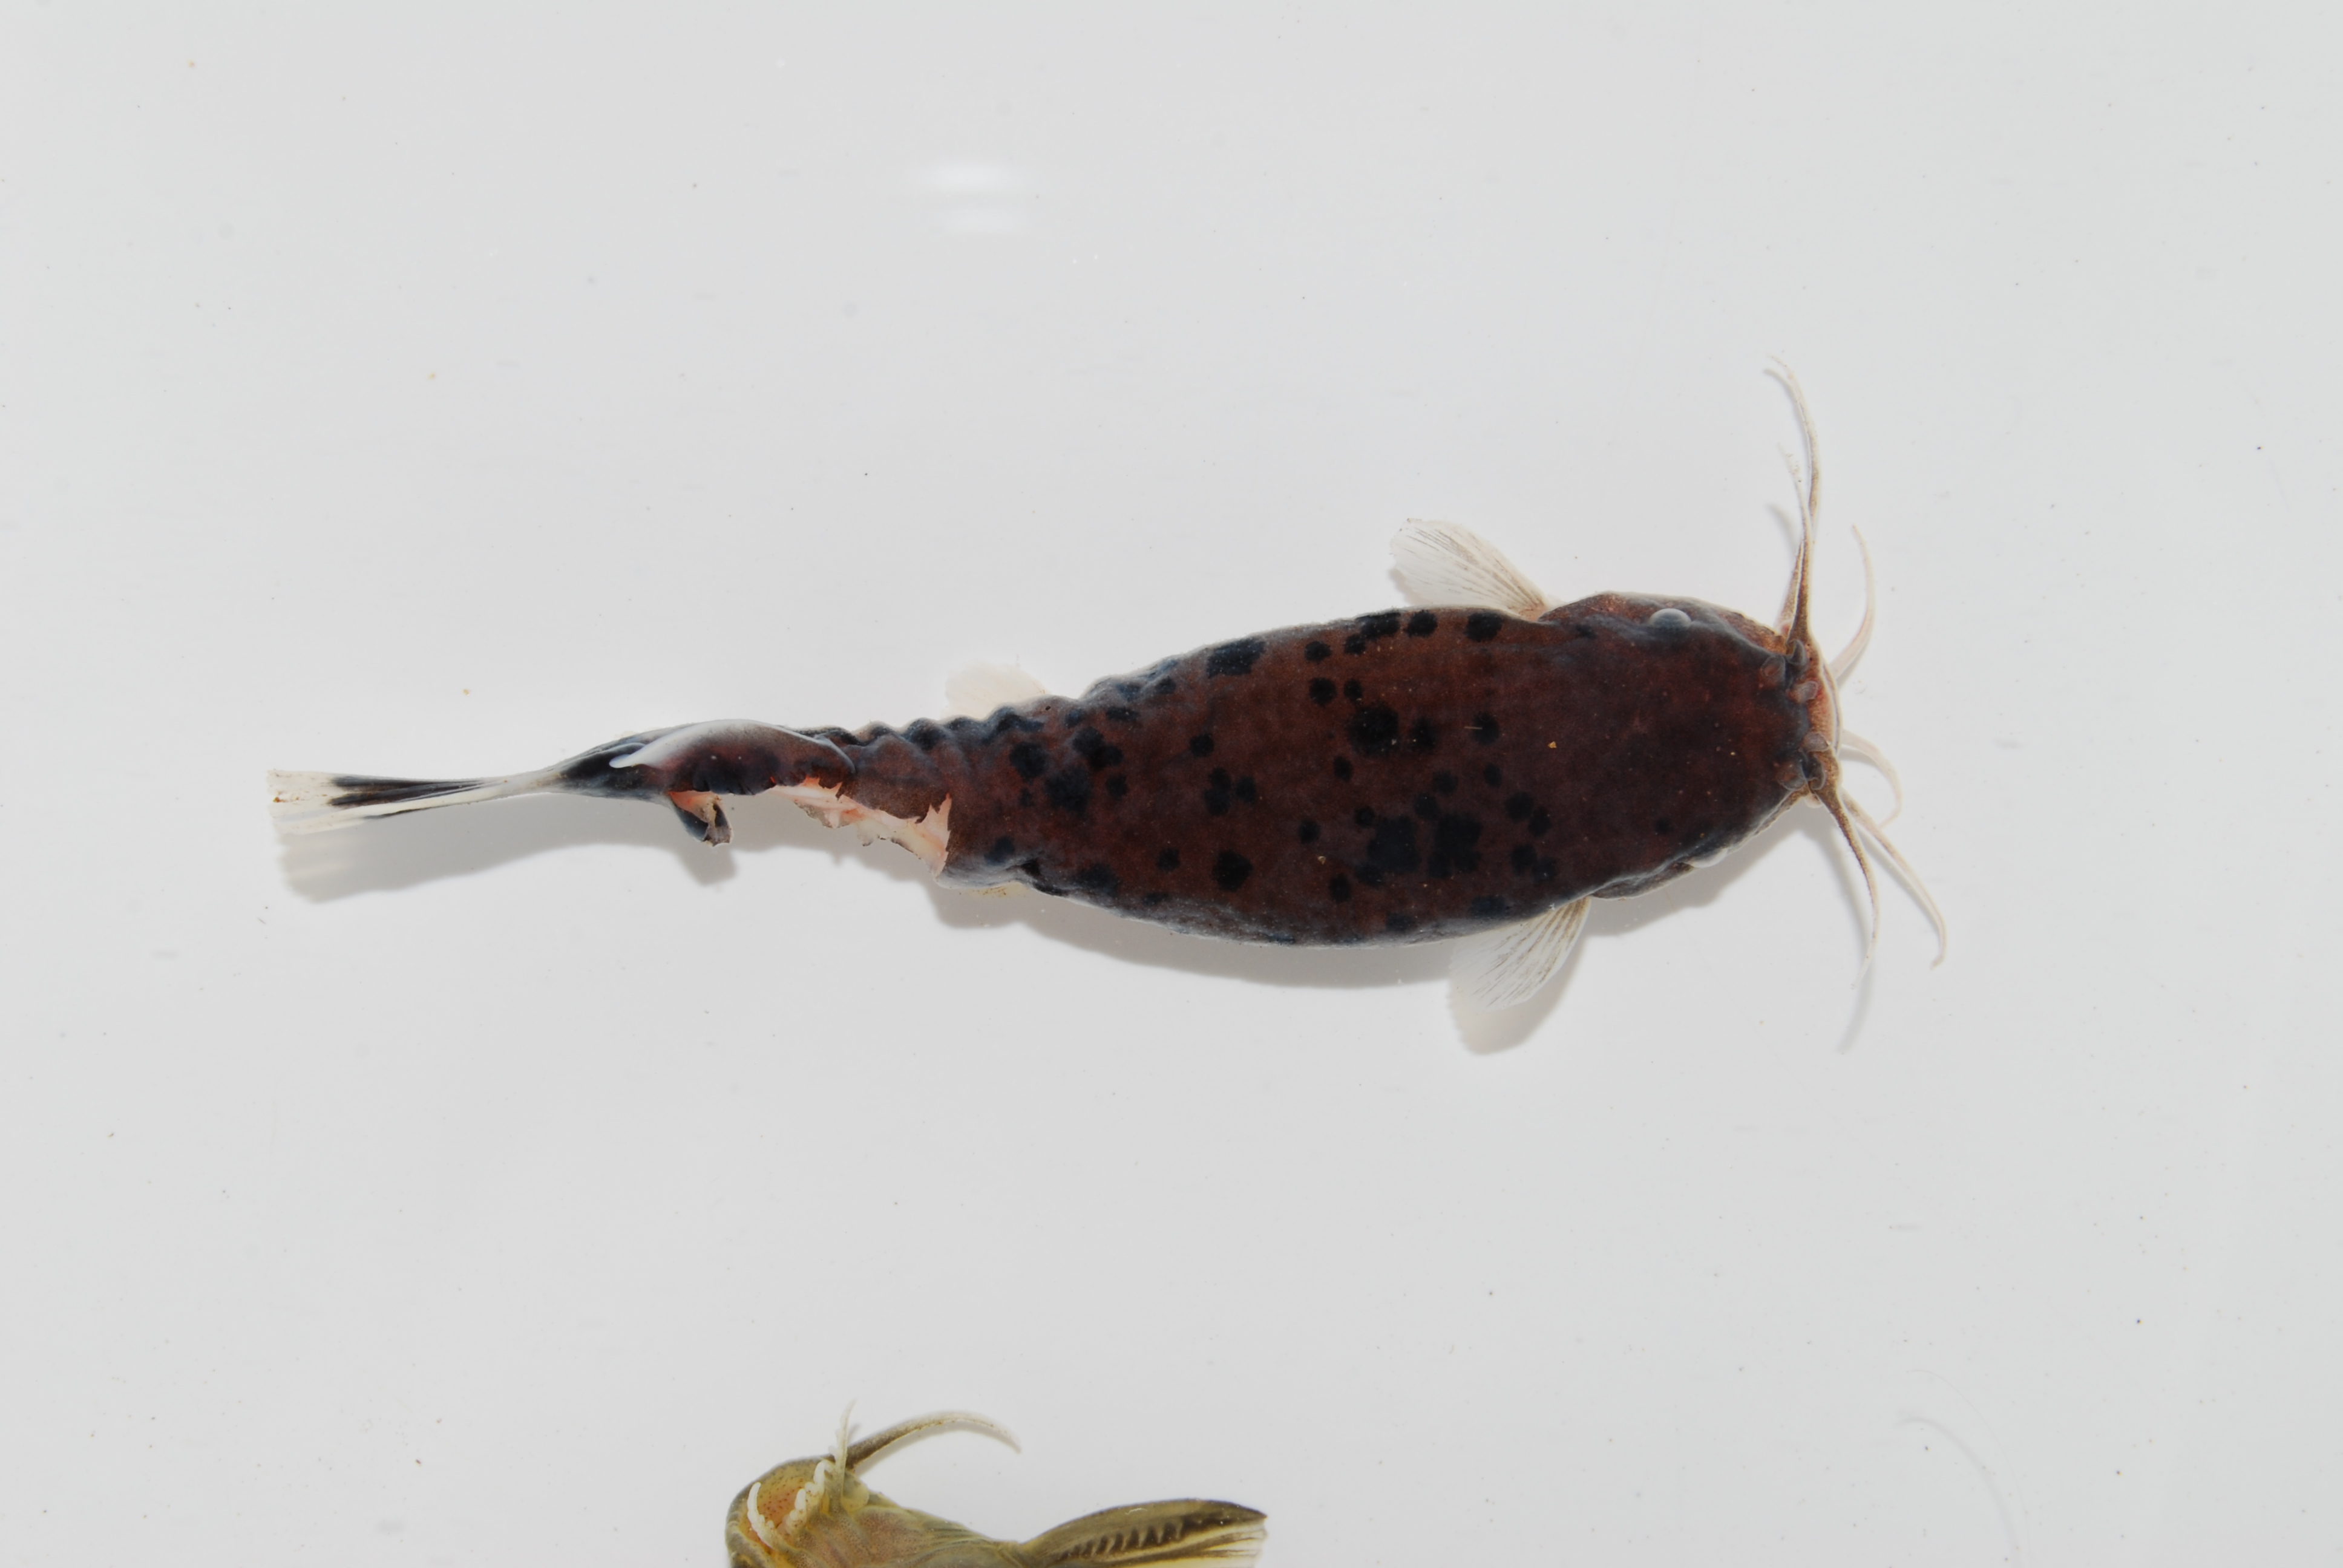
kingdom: Animalia
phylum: Chordata
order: Siluriformes
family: Malapteruridae
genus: Malapterurus
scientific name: Malapterurus shirensis
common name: Electric catfish
